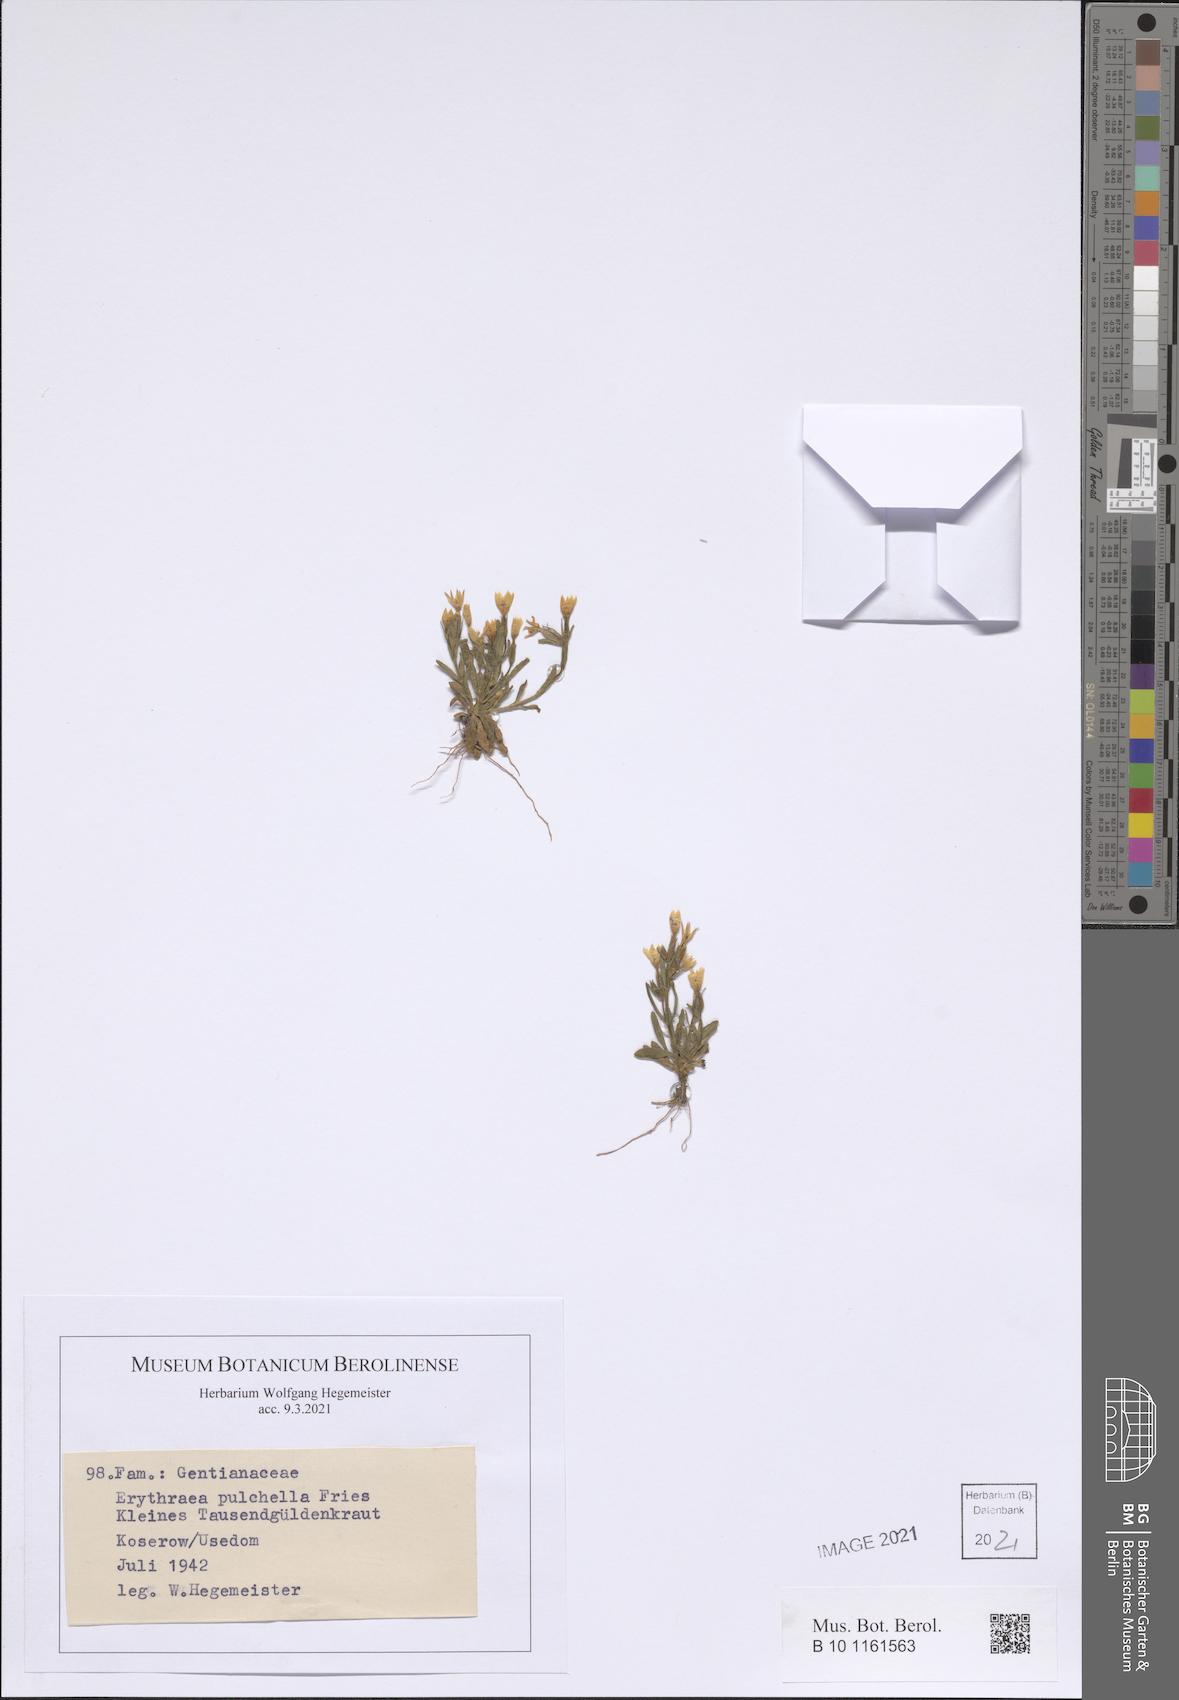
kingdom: Plantae
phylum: Tracheophyta
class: Magnoliopsida
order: Gentianales
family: Gentianaceae
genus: Centaurium
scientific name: Centaurium pulchellum
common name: Lesser centaury
